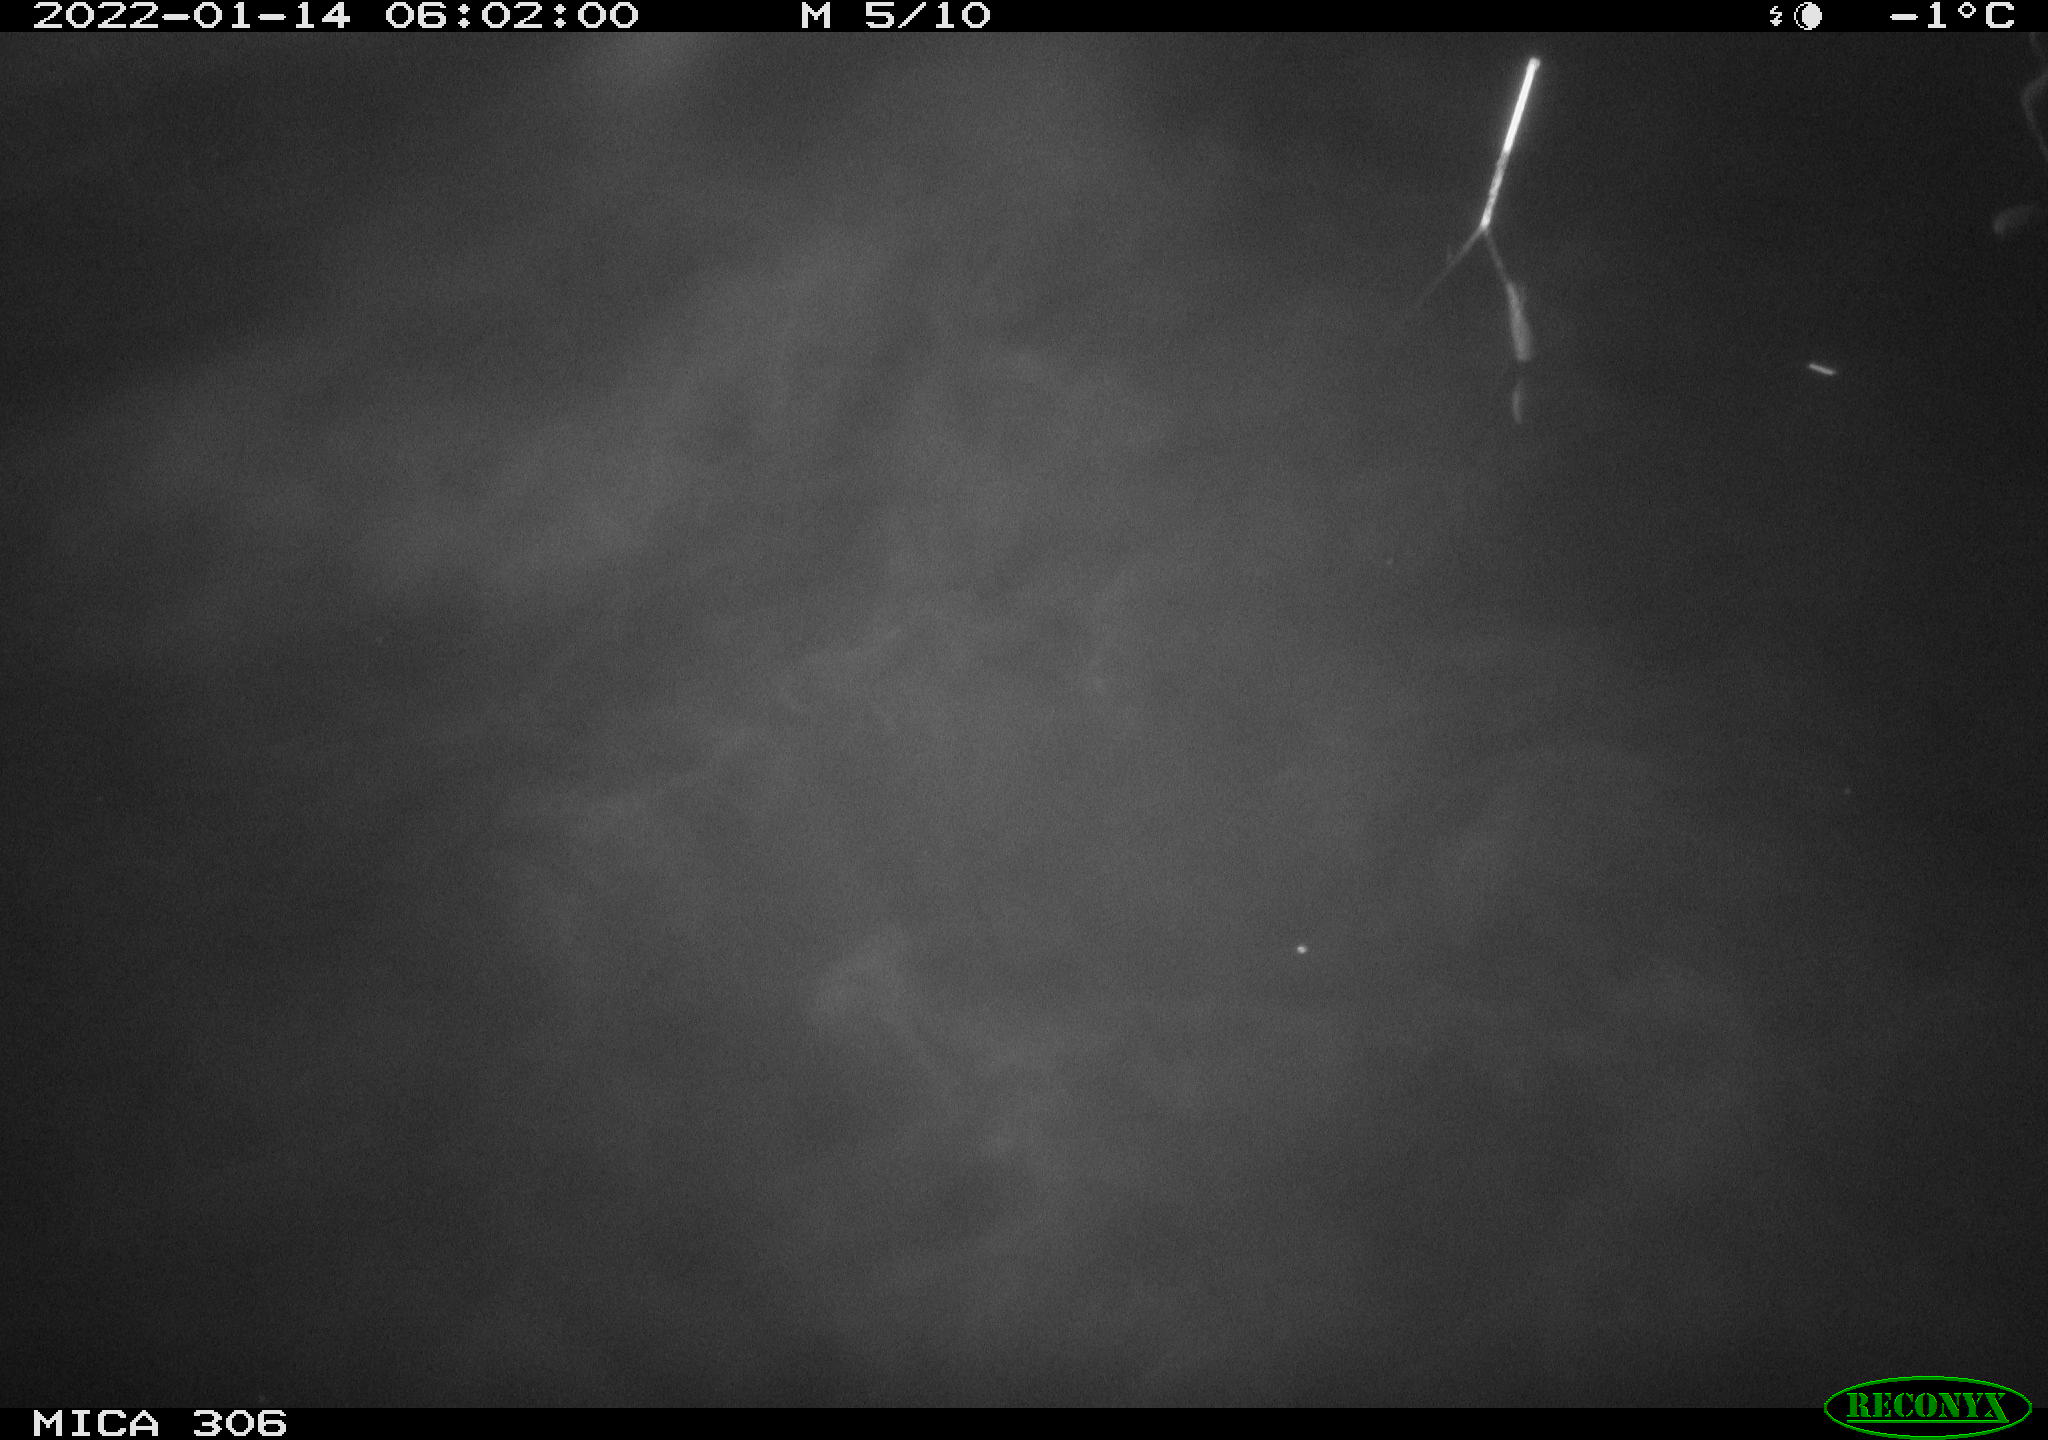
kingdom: Animalia
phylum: Chordata
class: Mammalia
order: Rodentia
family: Cricetidae
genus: Ondatra
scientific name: Ondatra zibethicus
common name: Muskrat
